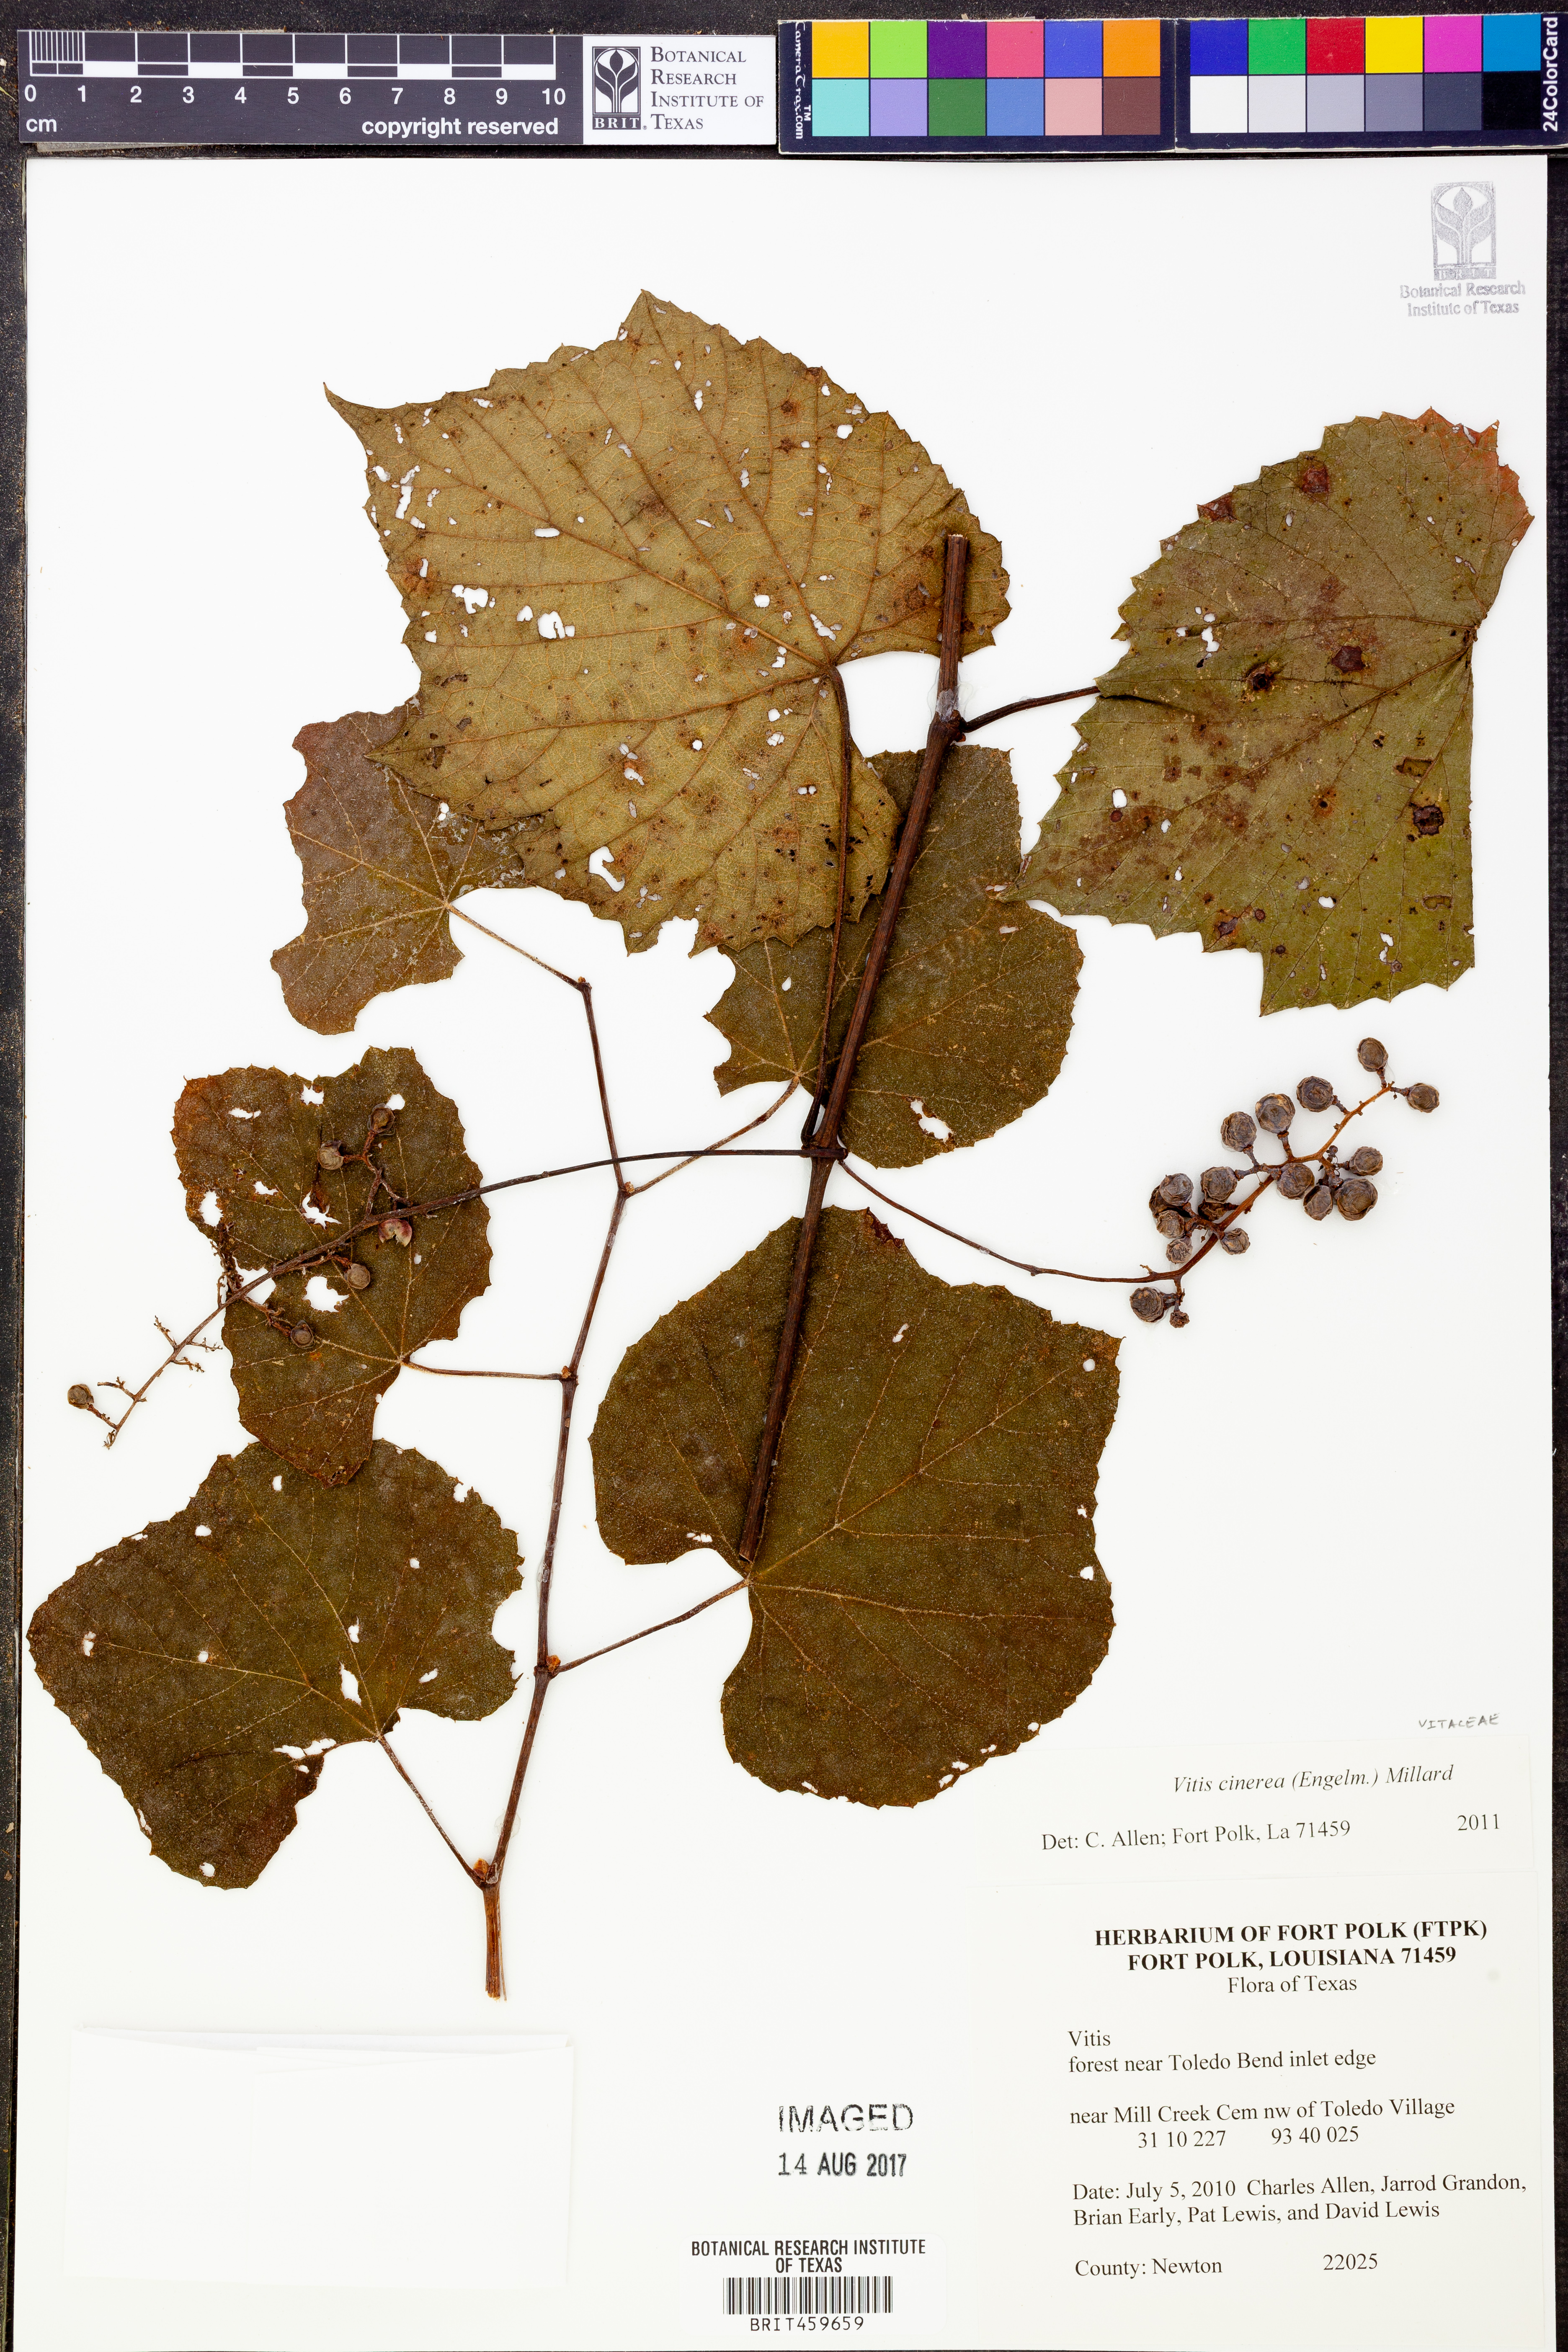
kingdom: Plantae
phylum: Tracheophyta
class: Magnoliopsida
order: Vitales
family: Vitaceae
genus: Vitis
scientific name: Vitis cinerea
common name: Ashy grape
